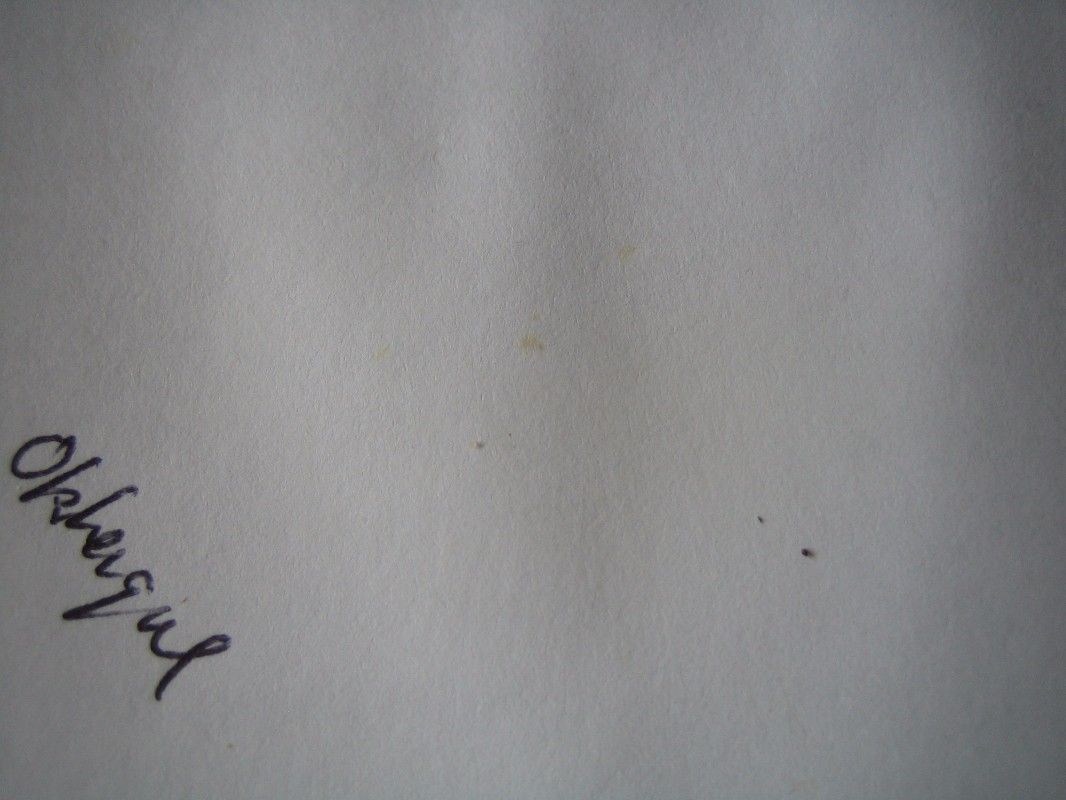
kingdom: Fungi
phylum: Basidiomycota
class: Agaricomycetes
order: Russulales
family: Russulaceae
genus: Russula
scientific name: Russula ochroleuca
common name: okkergul skørhat
